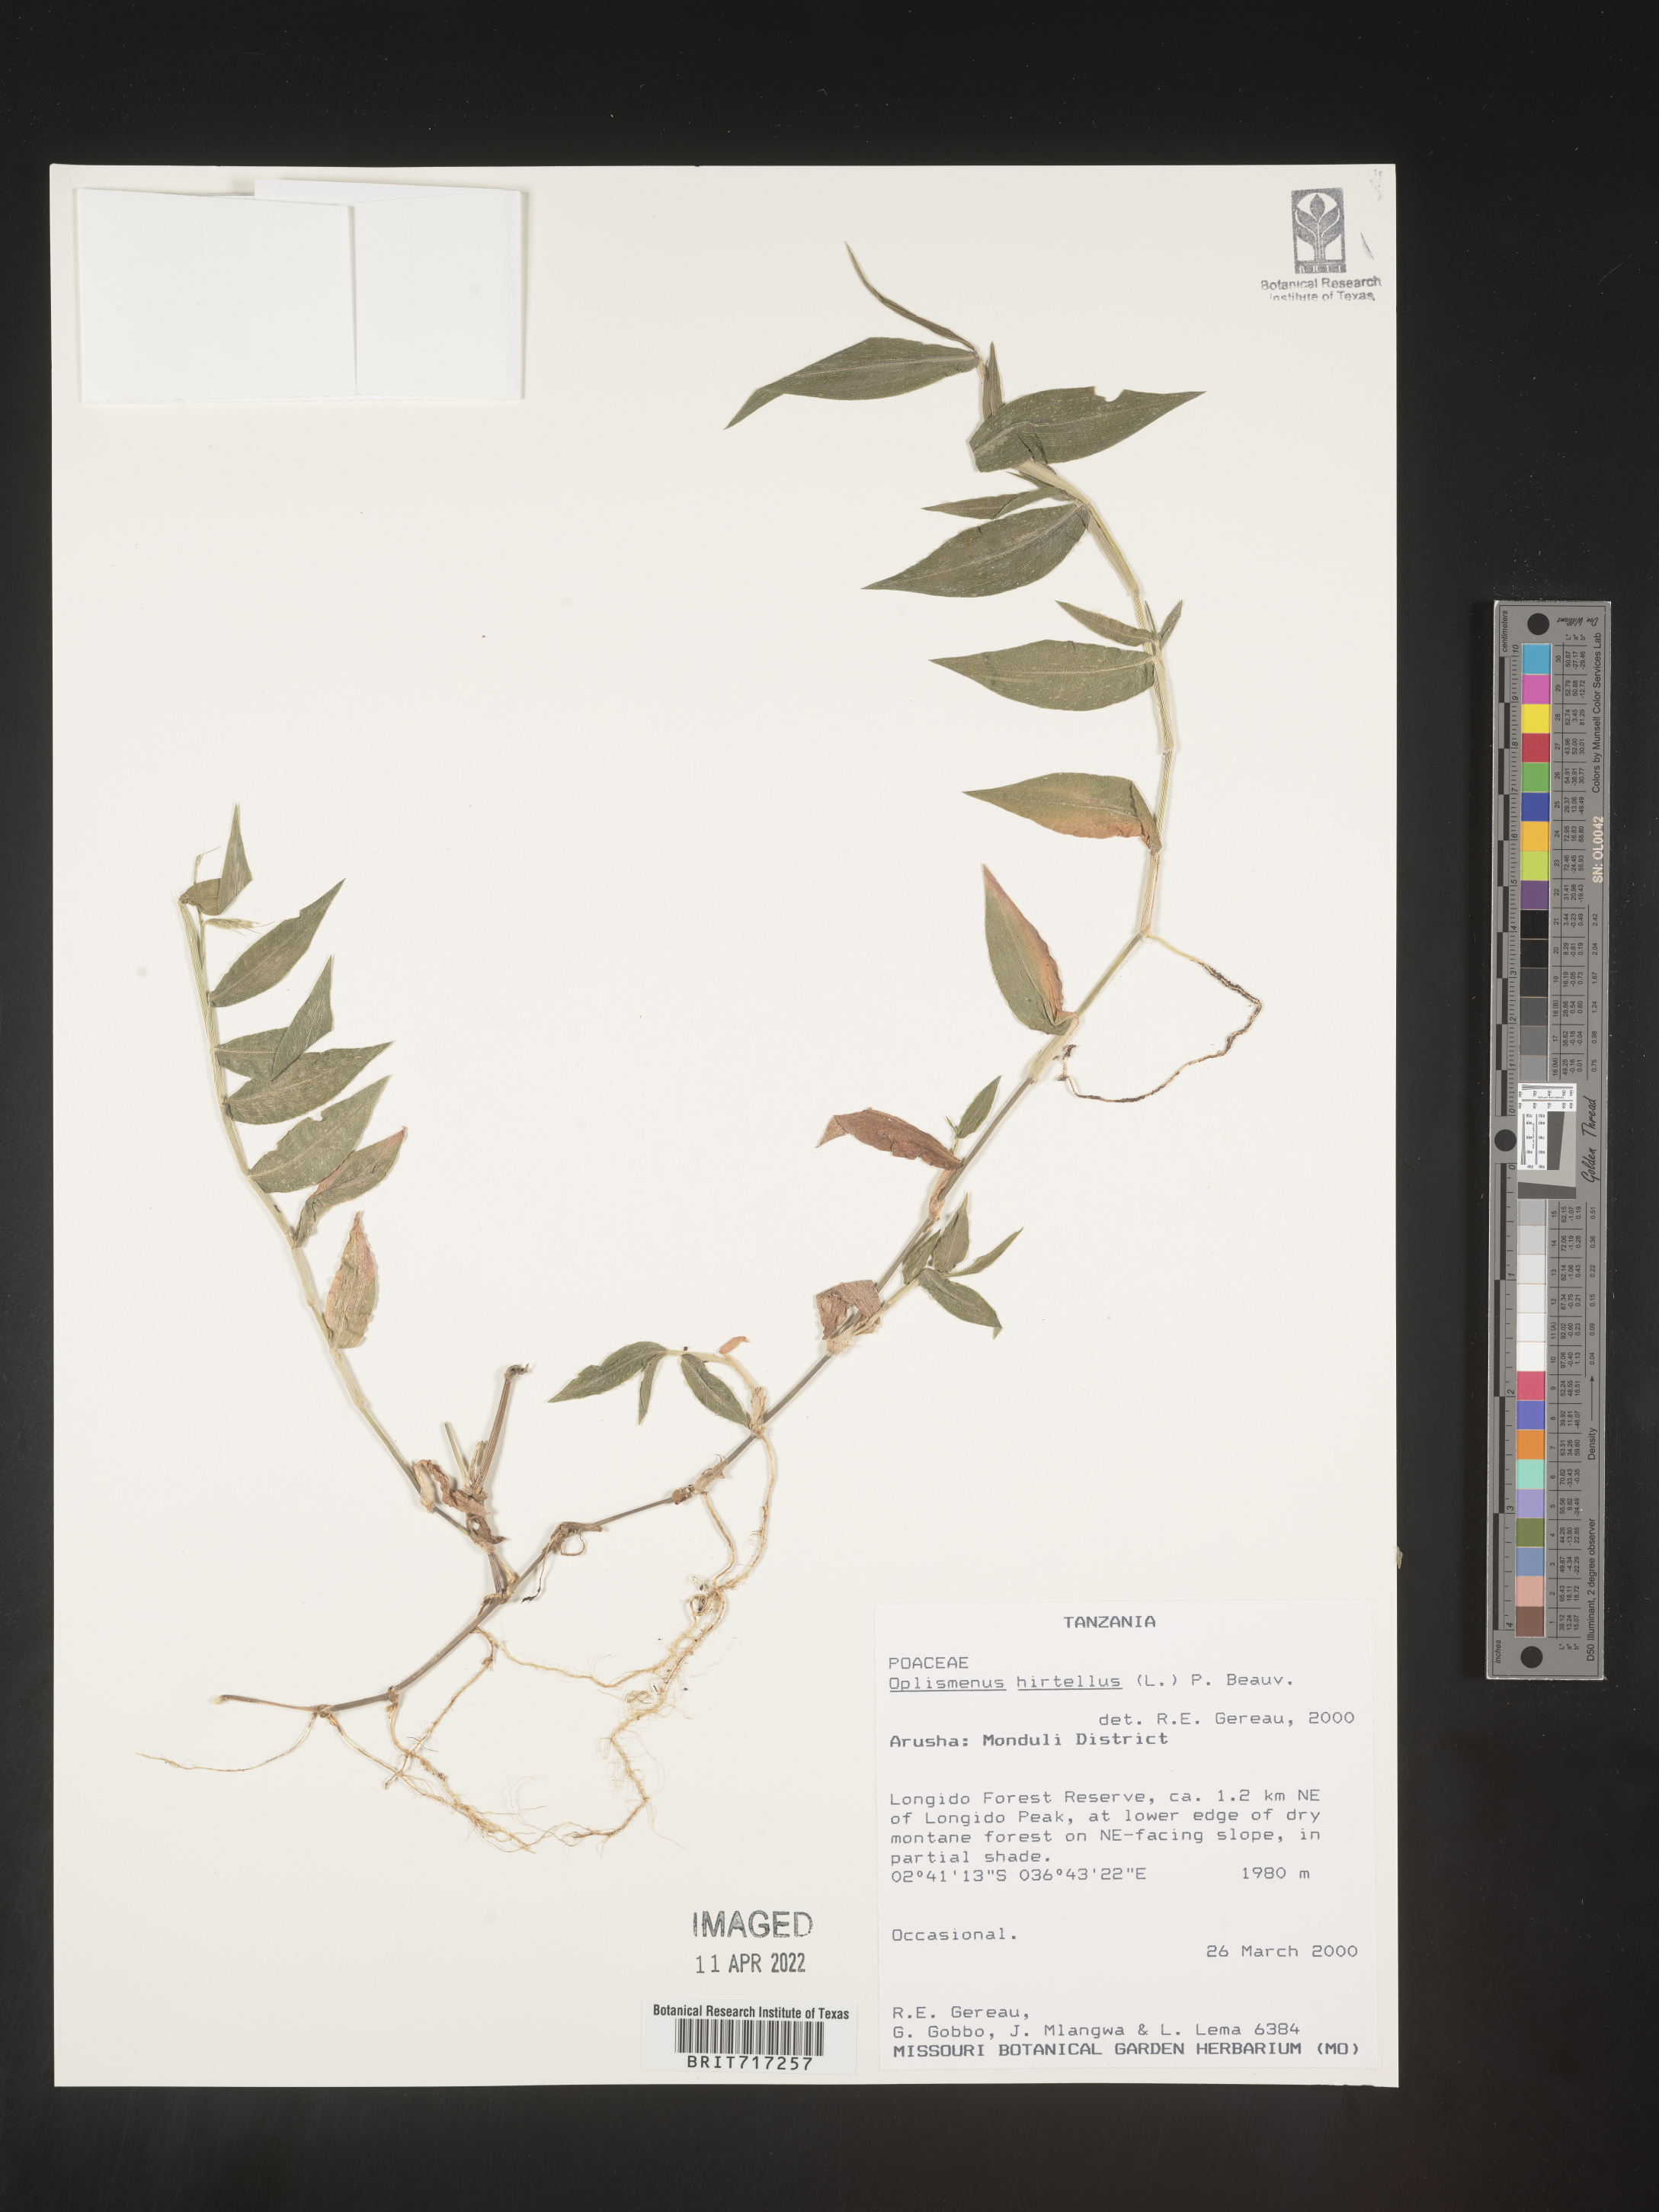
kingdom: Plantae
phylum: Tracheophyta
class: Liliopsida
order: Poales
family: Poaceae
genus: Oplismenus
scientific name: Oplismenus
